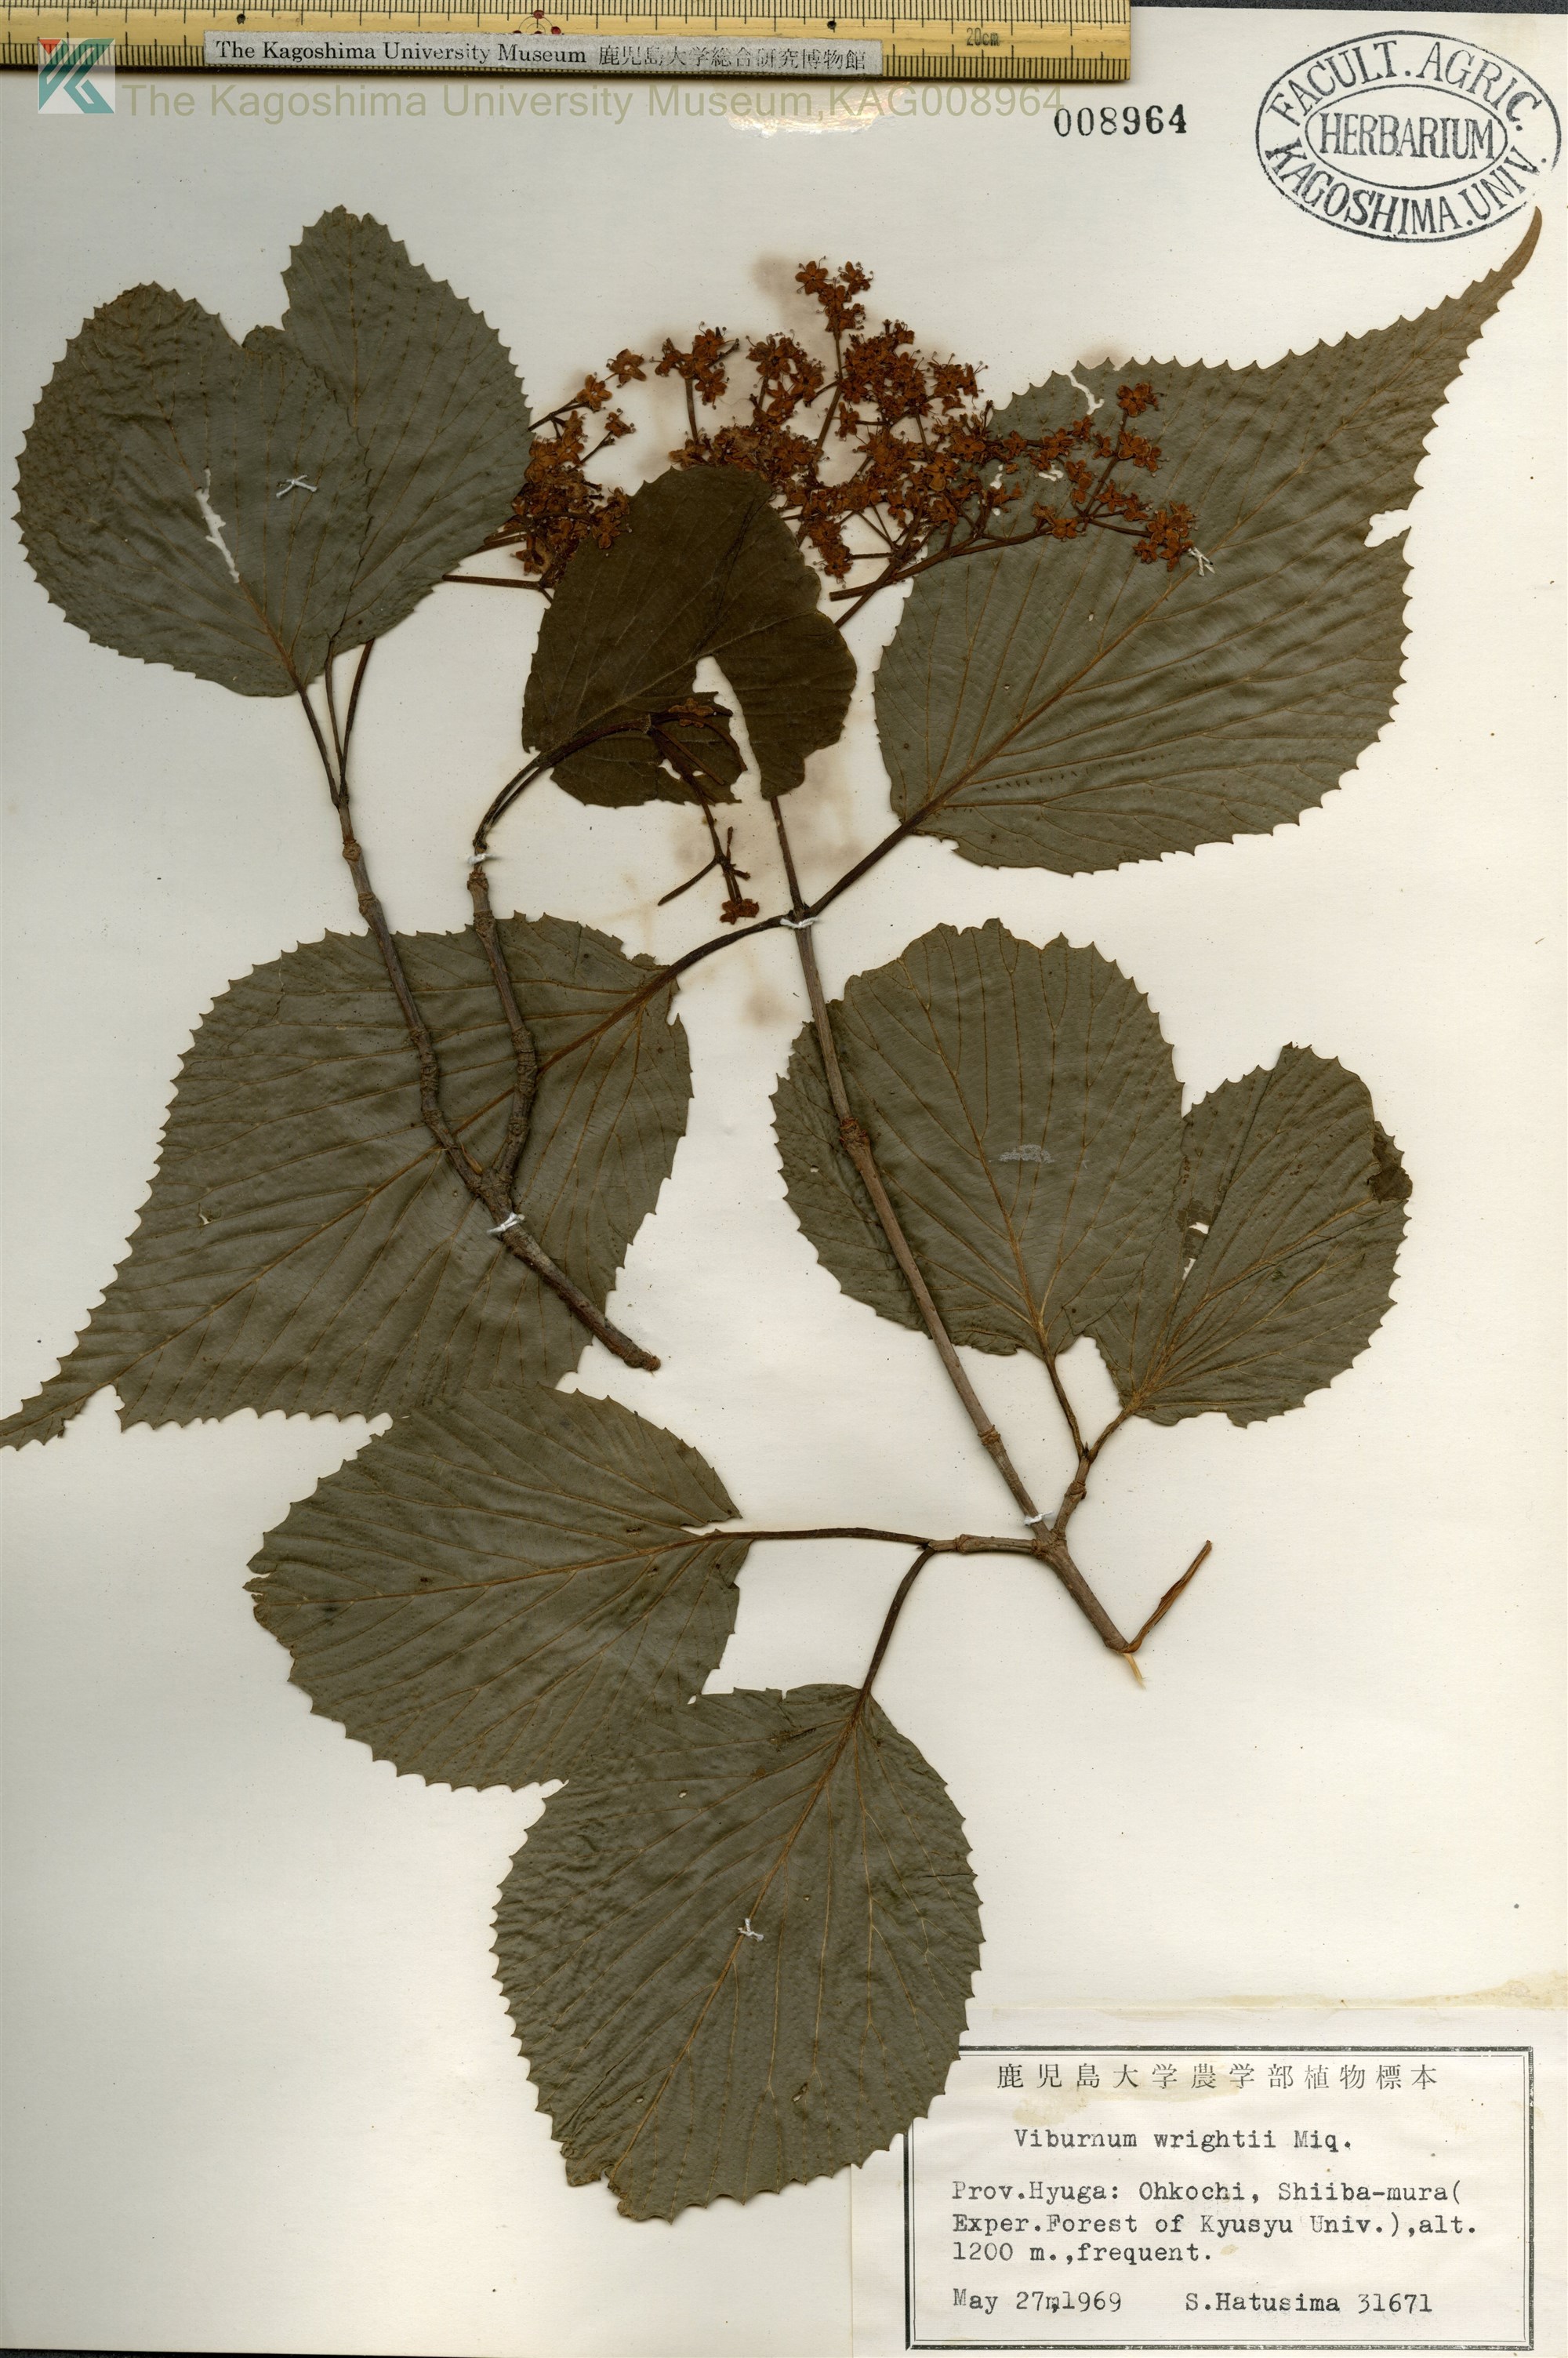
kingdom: Plantae
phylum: Tracheophyta
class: Magnoliopsida
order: Dipsacales
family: Viburnaceae
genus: Viburnum
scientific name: Viburnum wrightii
